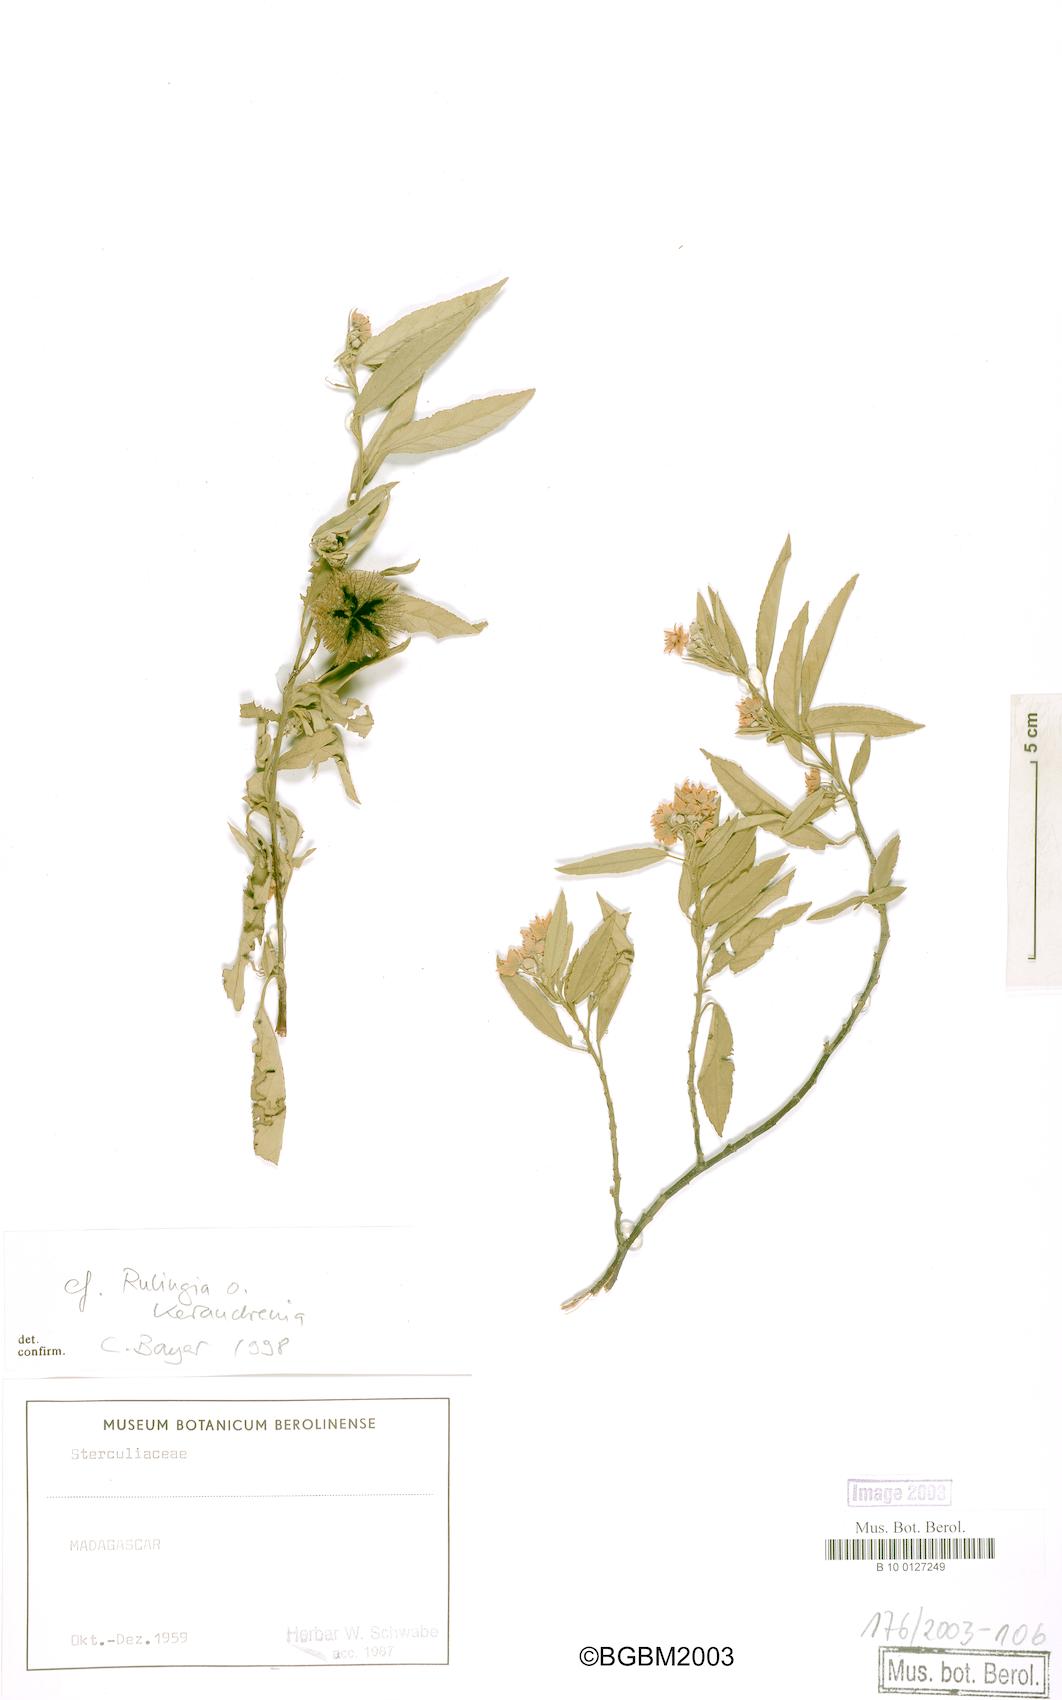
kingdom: Plantae
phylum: Tracheophyta
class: Magnoliopsida
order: Malvales
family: Malvaceae
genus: Commersonia
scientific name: Commersonia
